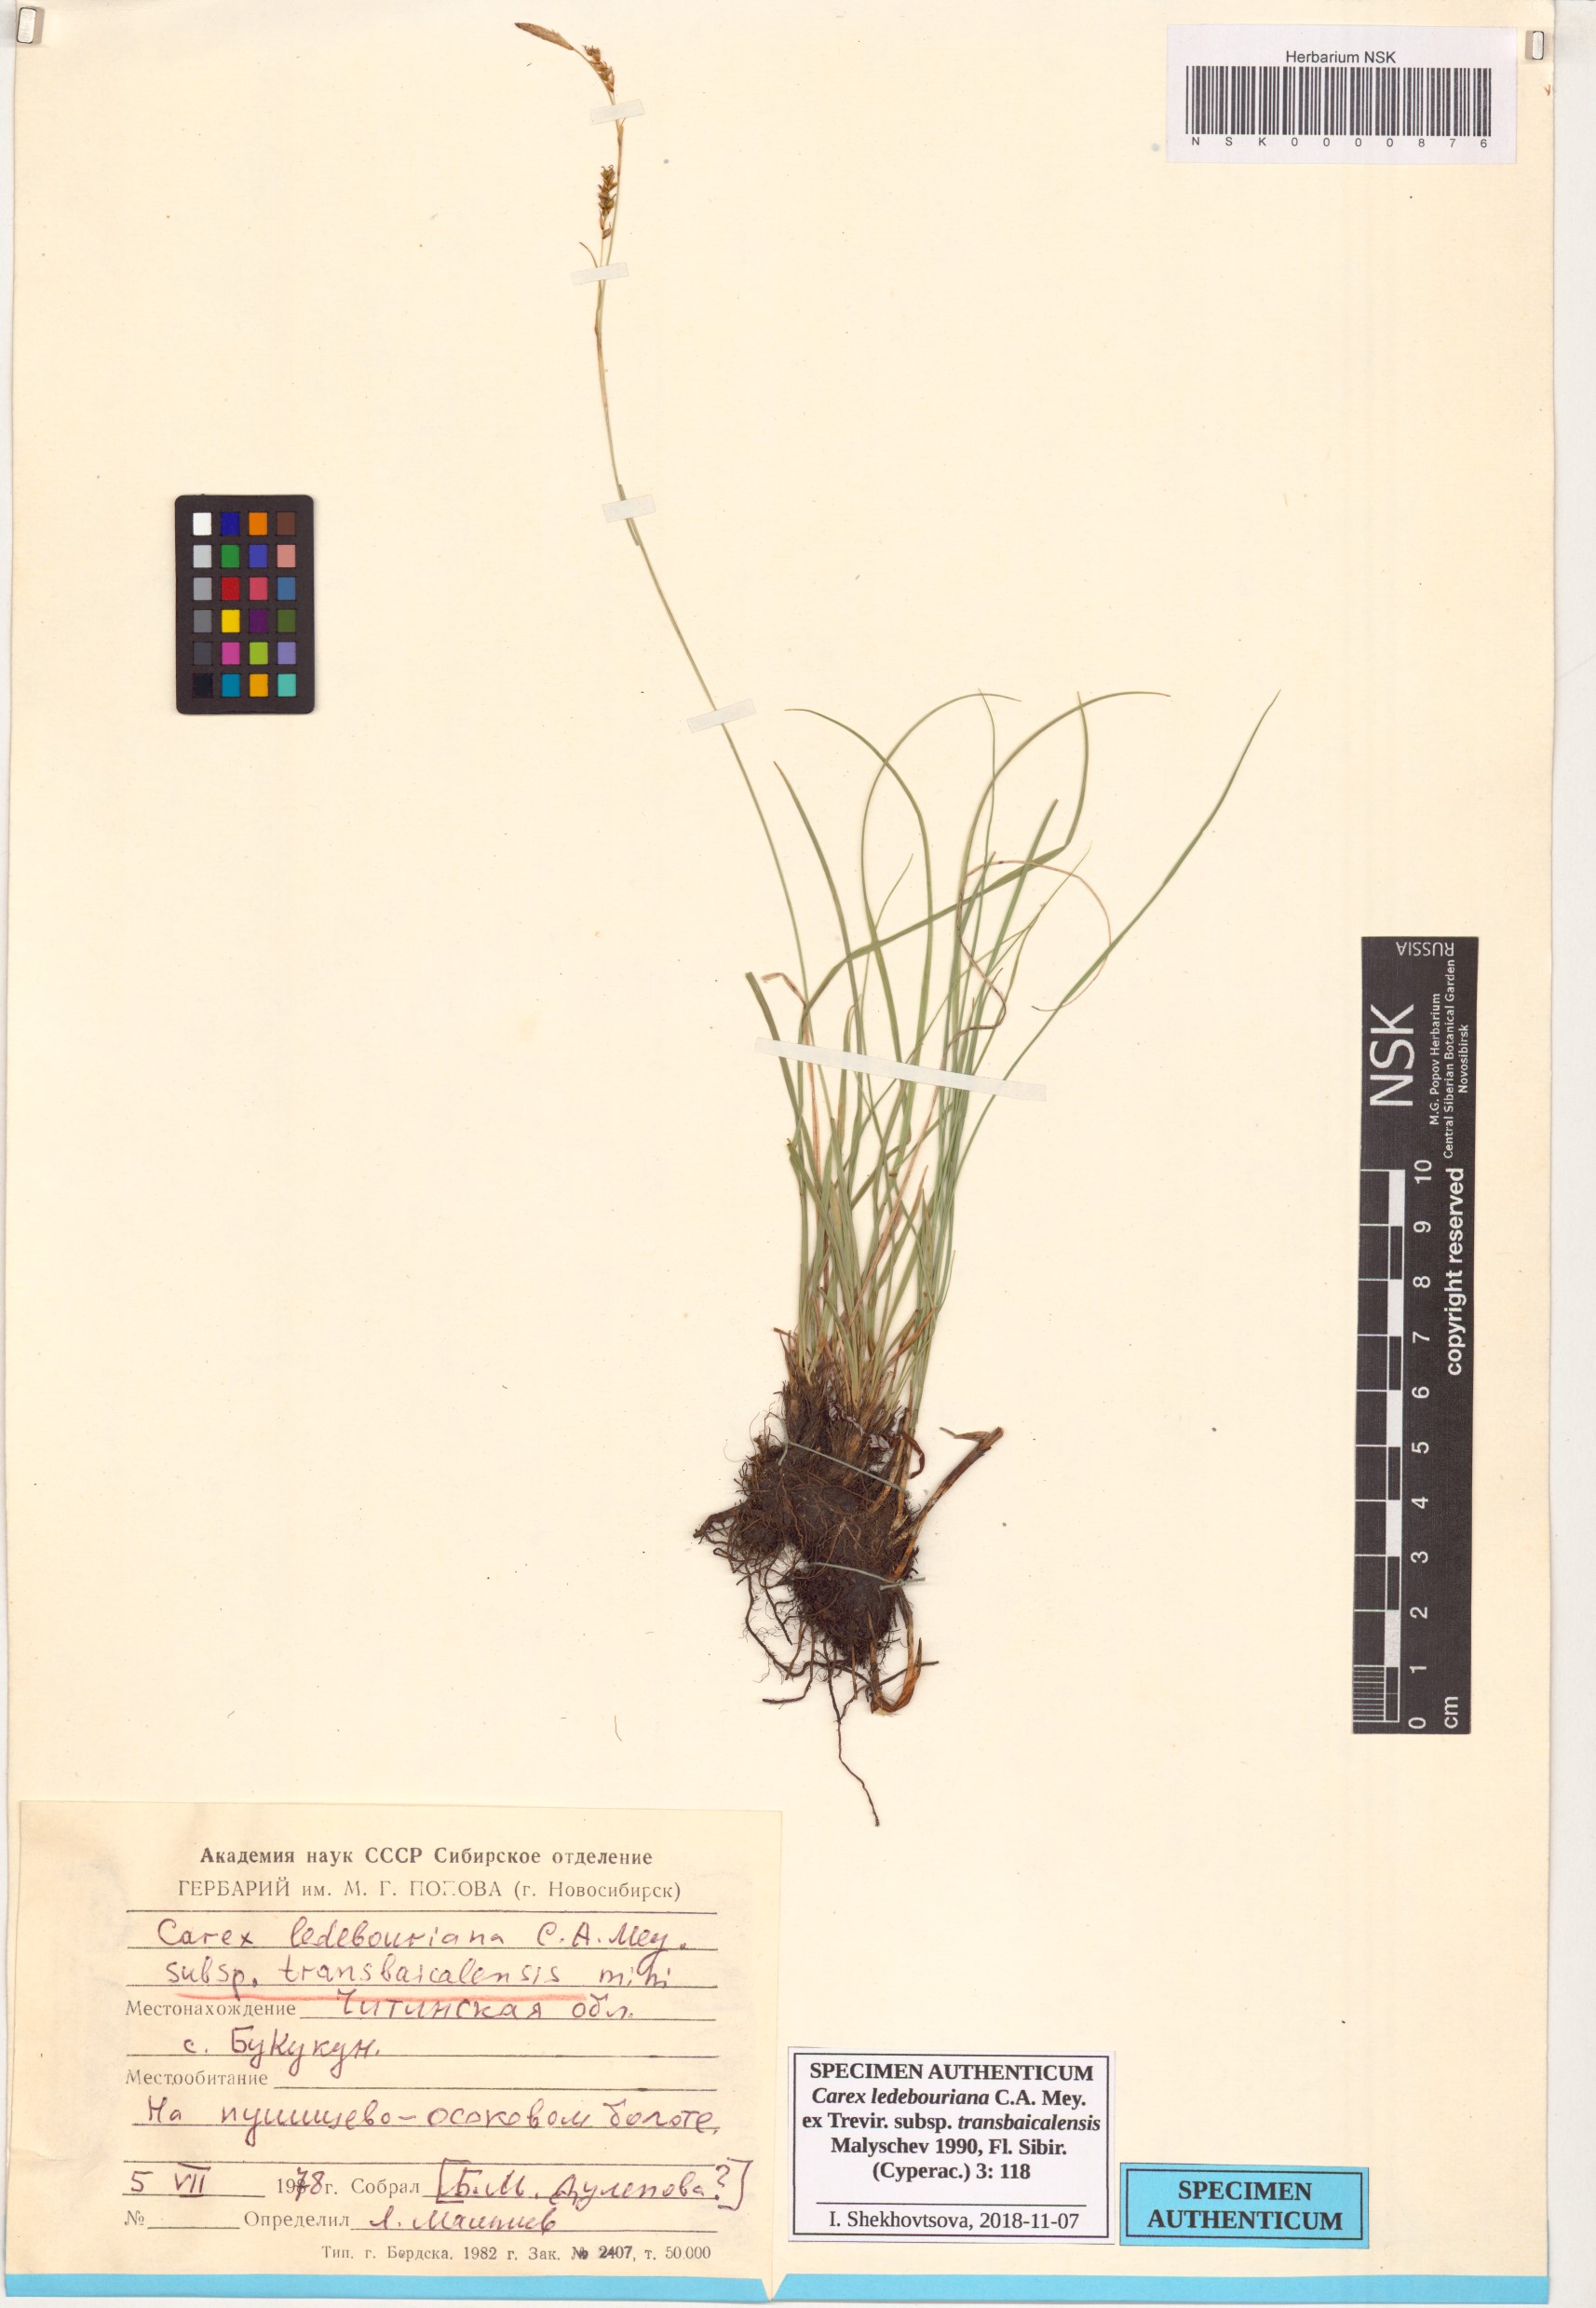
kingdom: Plantae
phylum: Tracheophyta
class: Liliopsida
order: Poales
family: Cyperaceae
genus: Carex
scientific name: Carex ledebouriana
